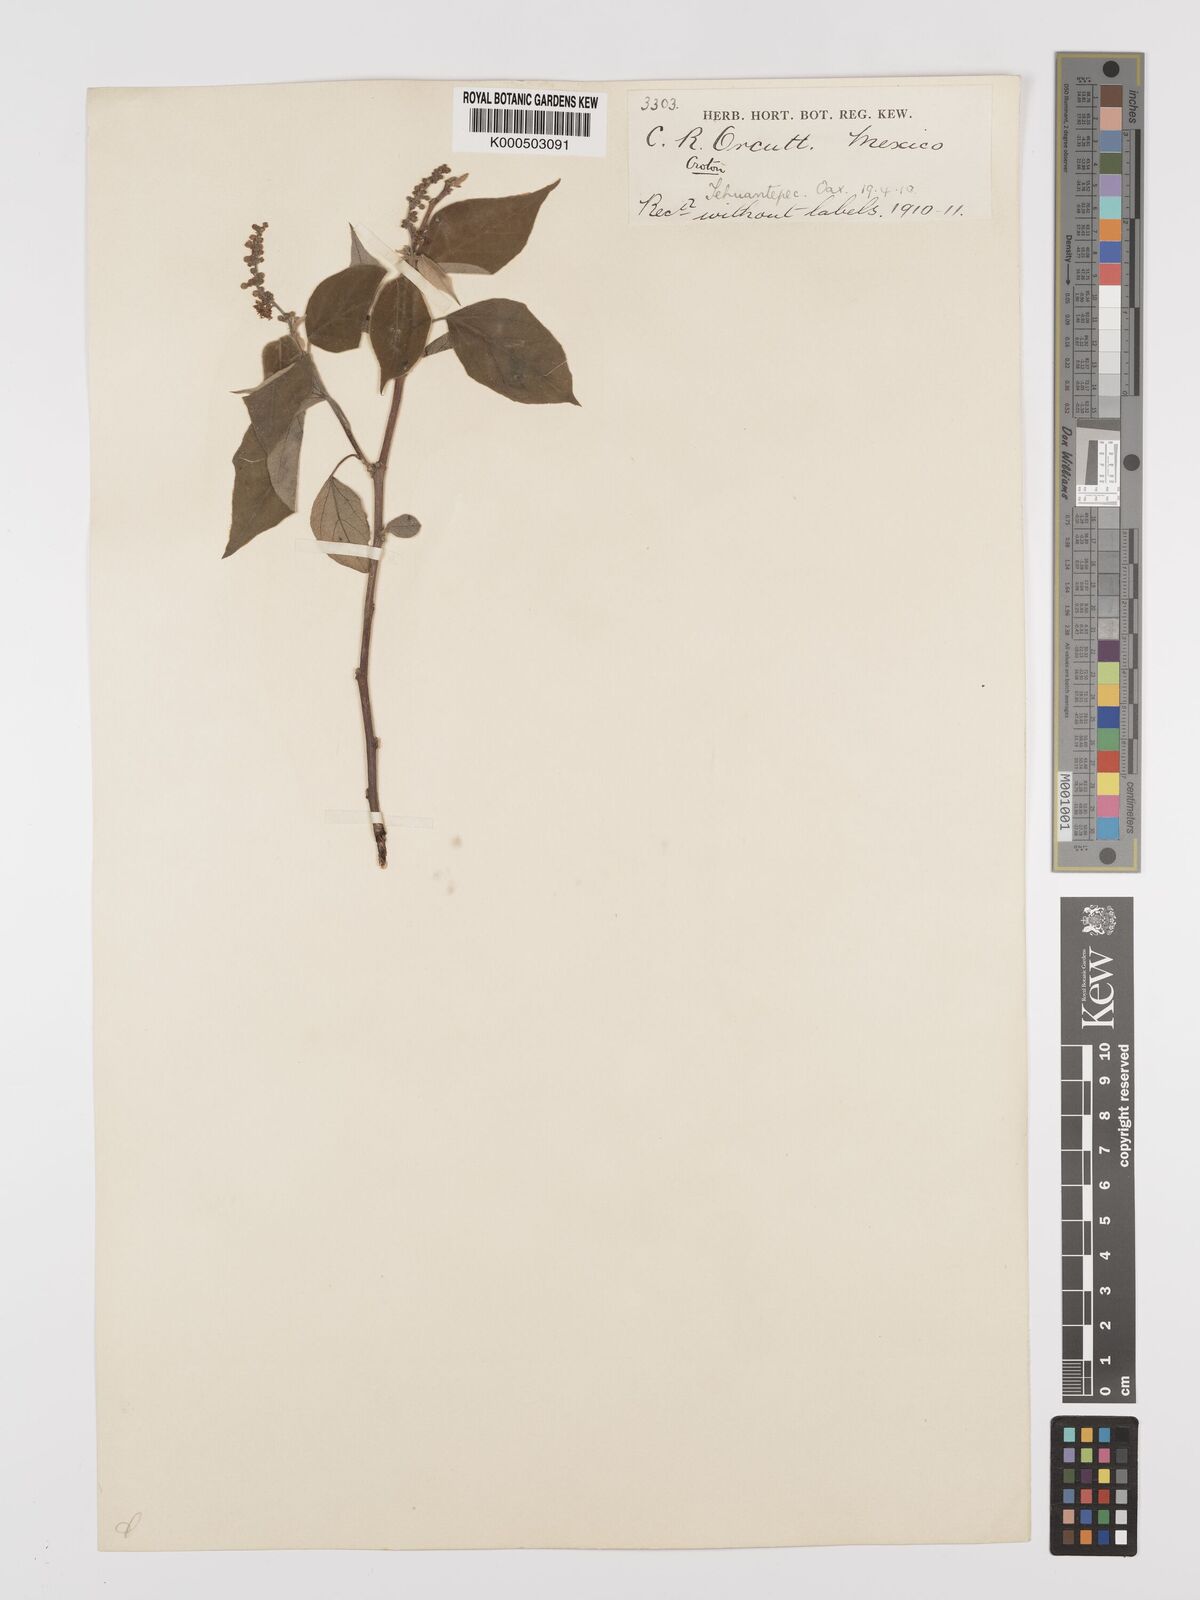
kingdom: Plantae
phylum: Tracheophyta
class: Magnoliopsida
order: Malpighiales
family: Euphorbiaceae
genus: Croton
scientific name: Croton
